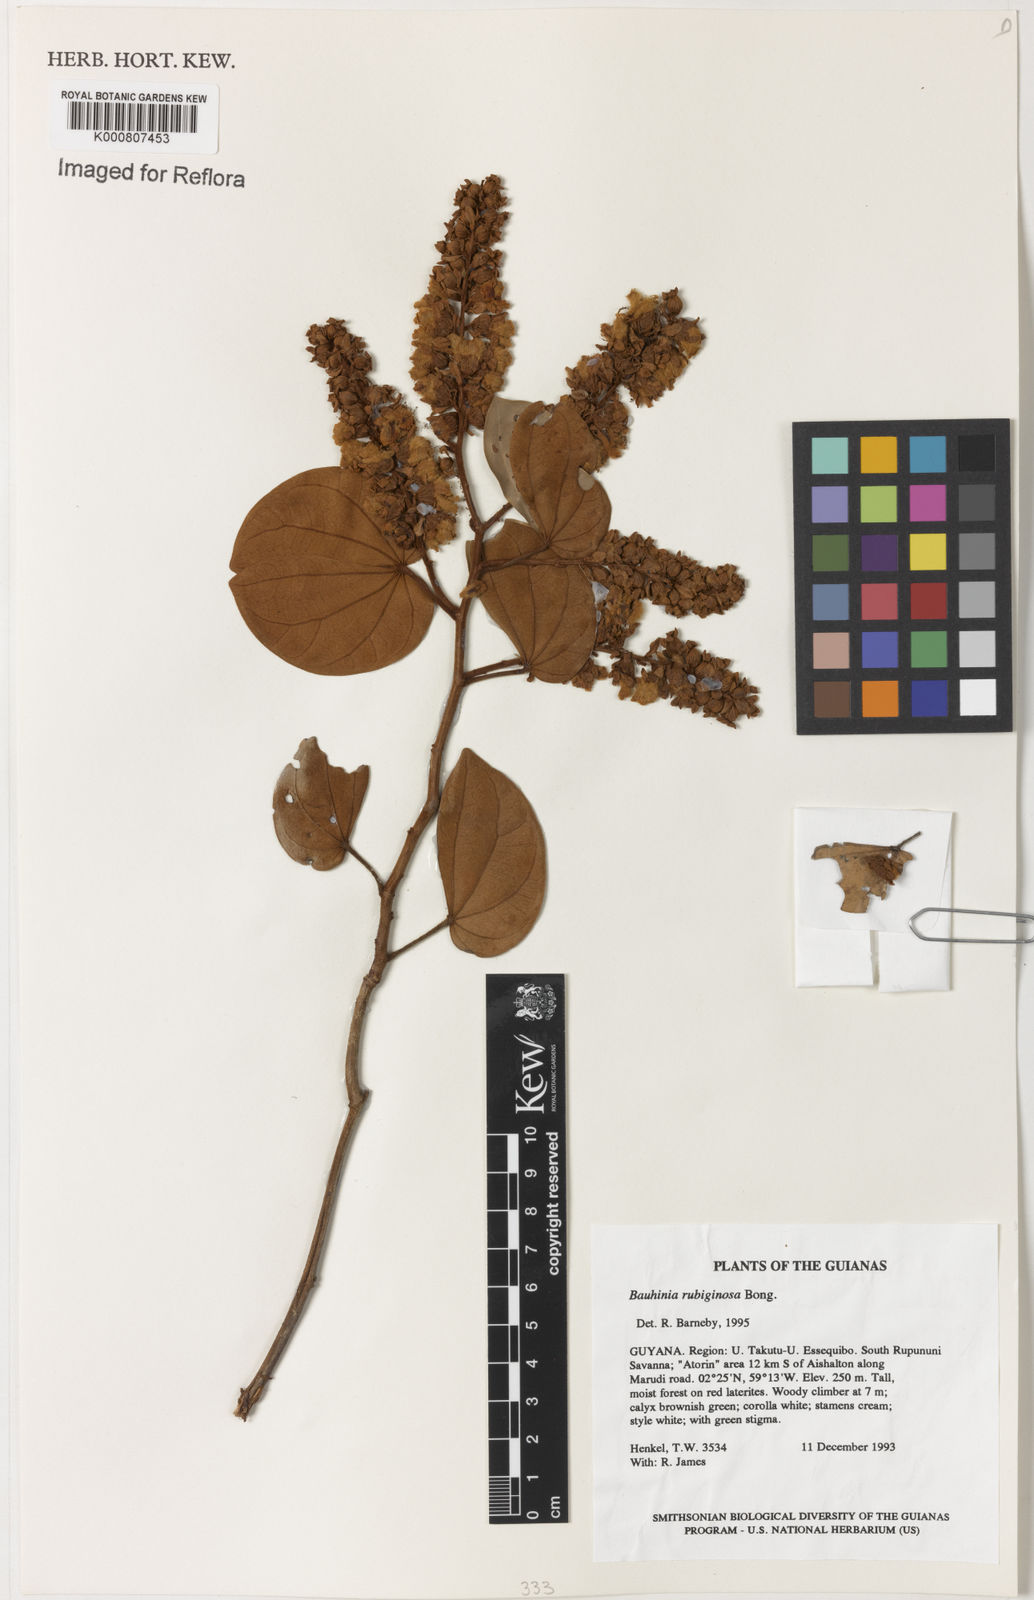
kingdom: Plantae
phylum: Tracheophyta
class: Magnoliopsida
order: Fabales
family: Fabaceae
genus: Schnella
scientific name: Schnella outimouta
